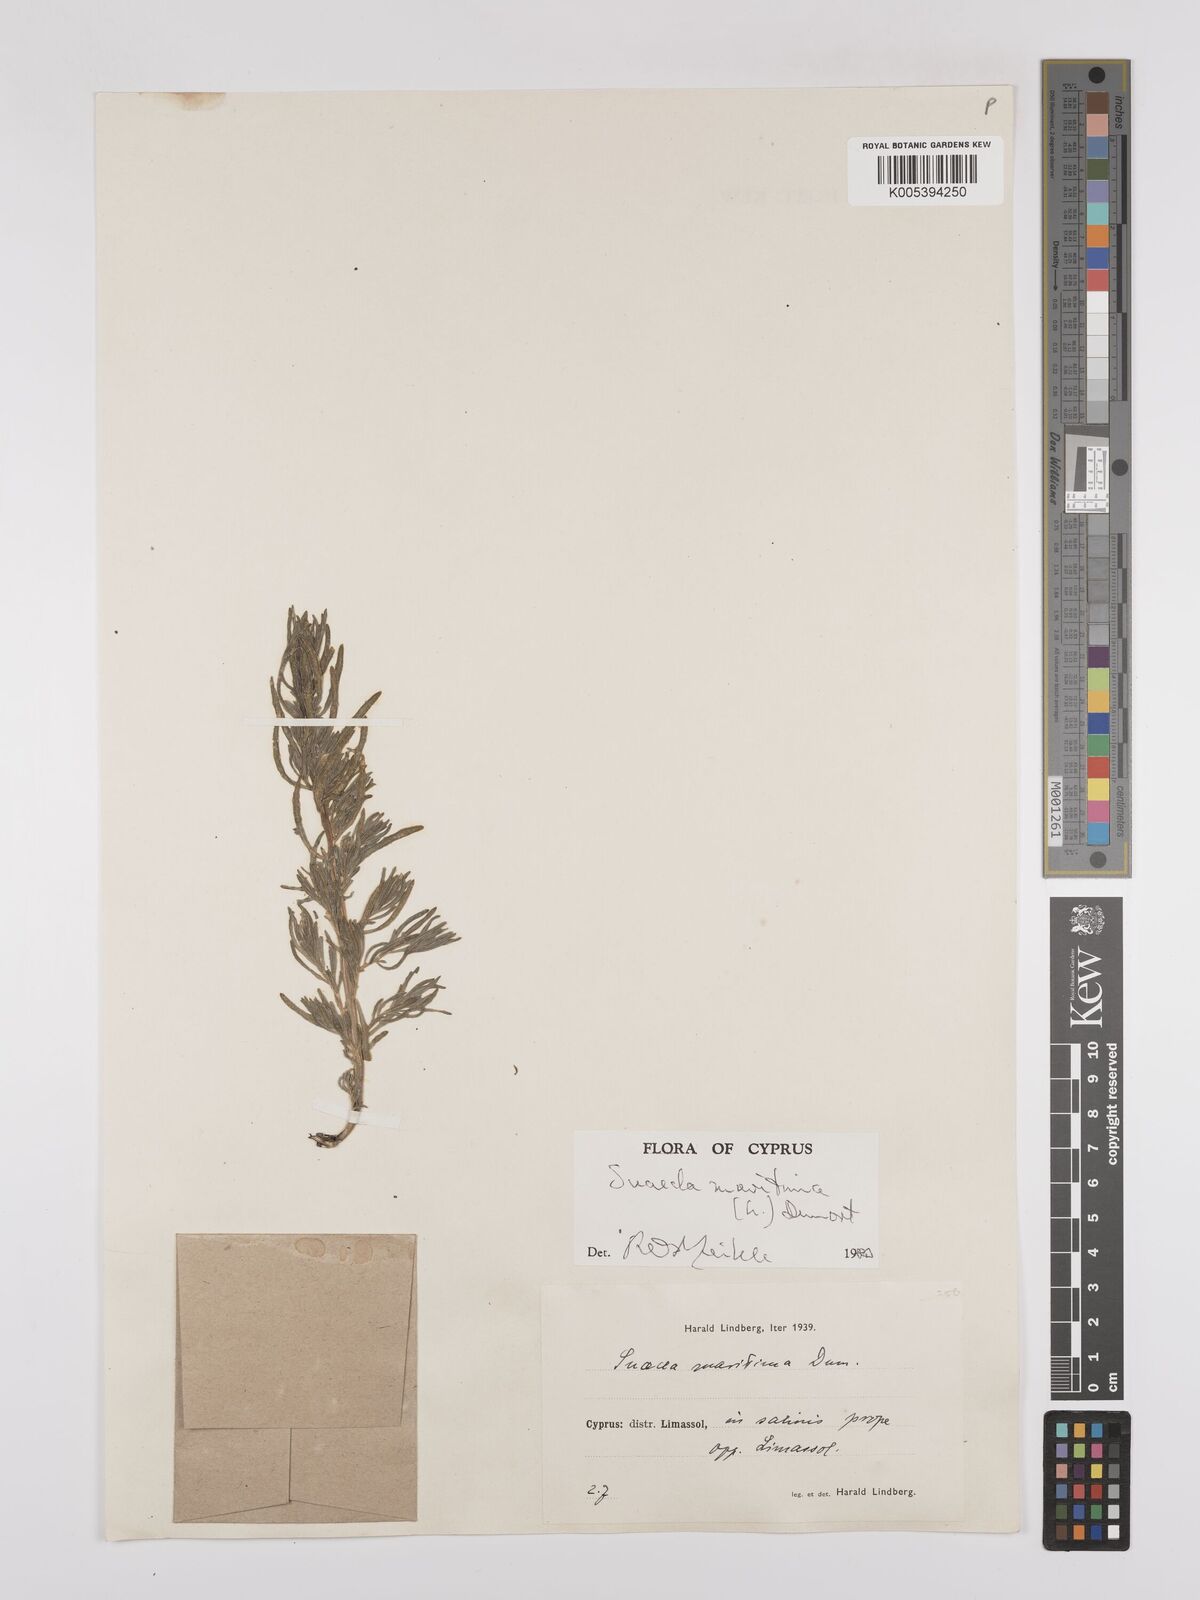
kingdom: Plantae
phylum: Tracheophyta
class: Magnoliopsida
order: Caryophyllales
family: Amaranthaceae
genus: Suaeda
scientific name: Suaeda
